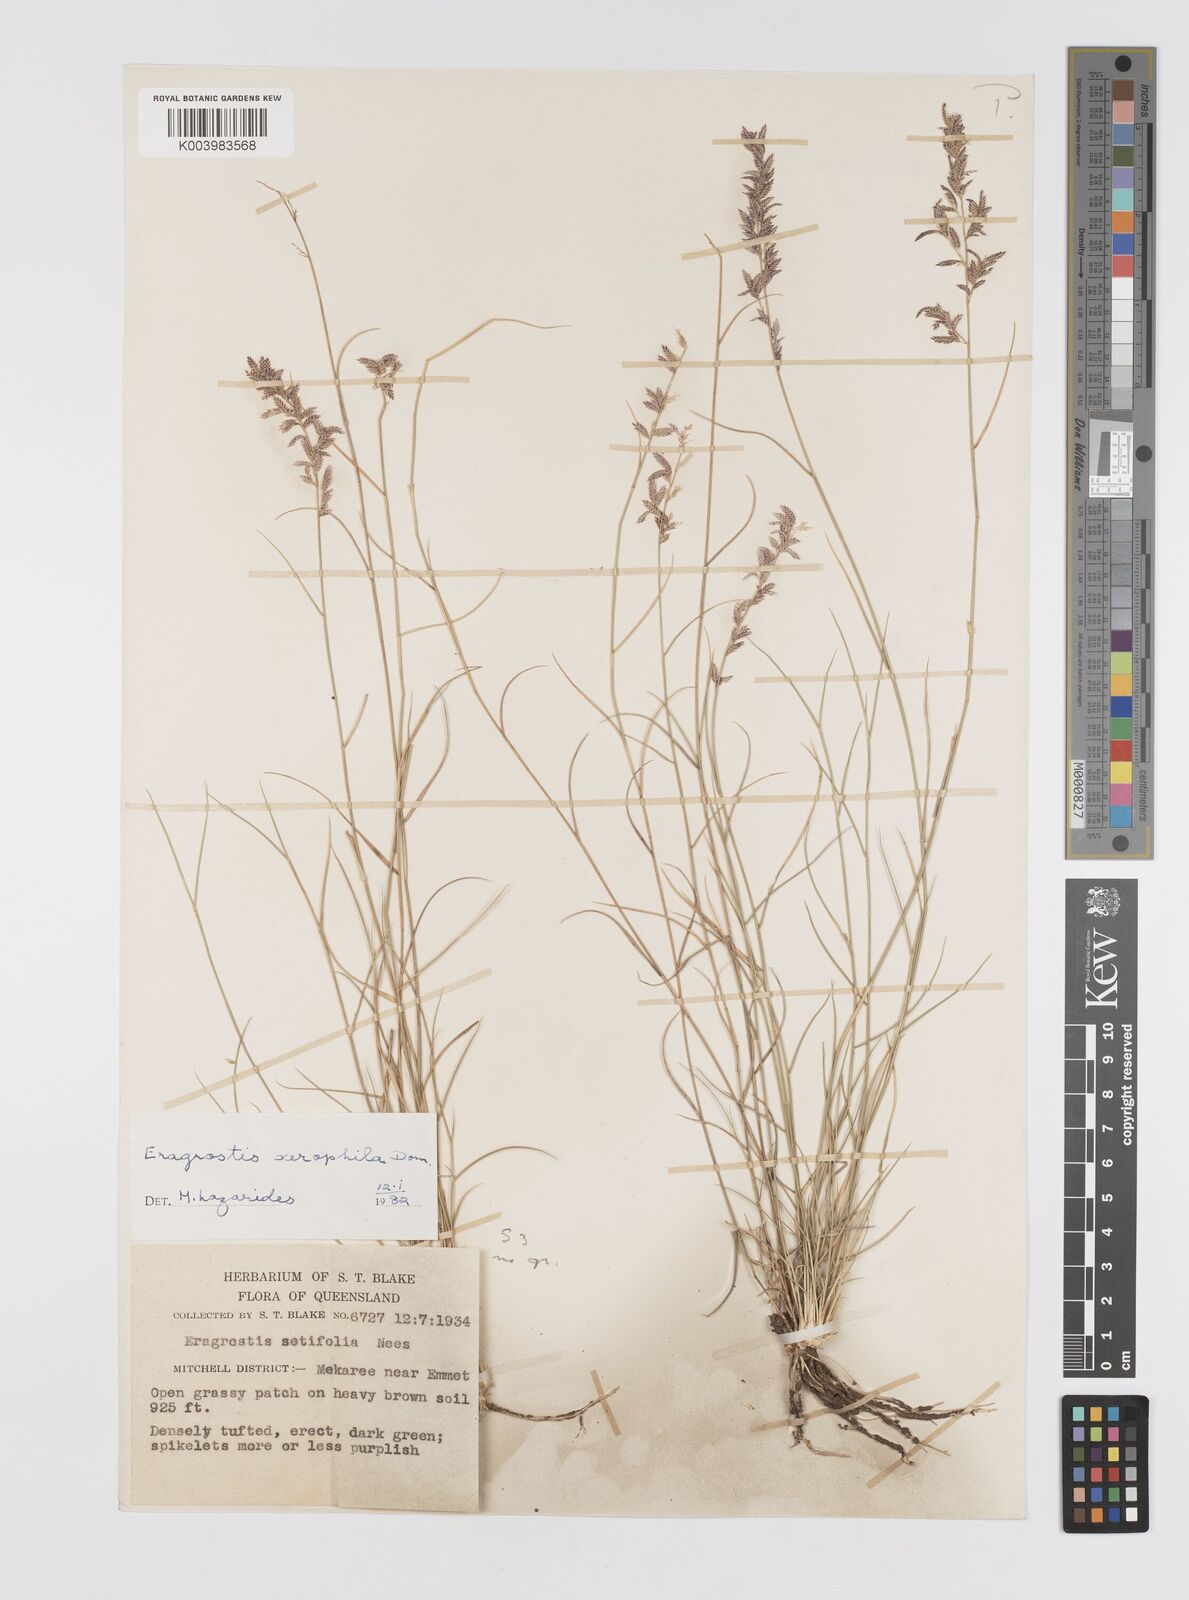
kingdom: Plantae
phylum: Tracheophyta
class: Liliopsida
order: Poales
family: Poaceae
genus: Eragrostis
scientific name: Eragrostis xerophila
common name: Wire wandarrie grass
